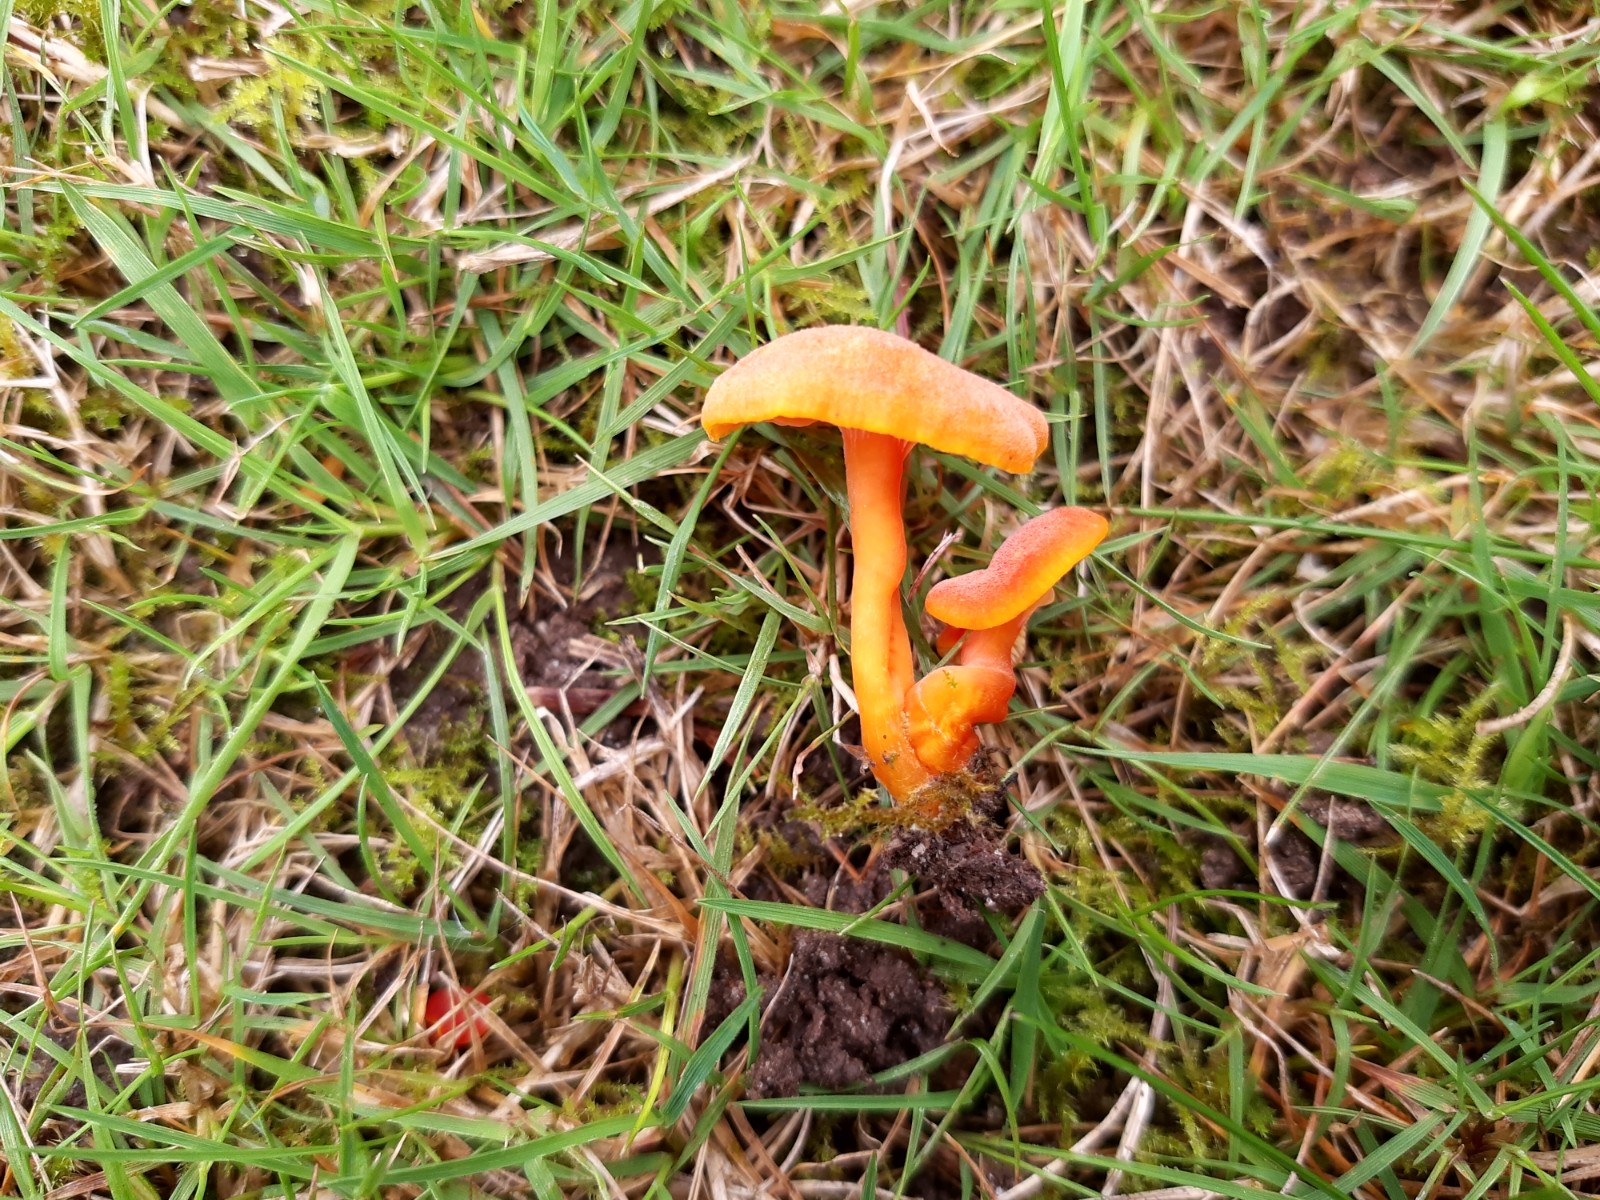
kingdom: Fungi
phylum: Basidiomycota
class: Agaricomycetes
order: Agaricales
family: Hygrophoraceae
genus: Hygrocybe
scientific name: Hygrocybe miniata
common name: mønje-vokshat
